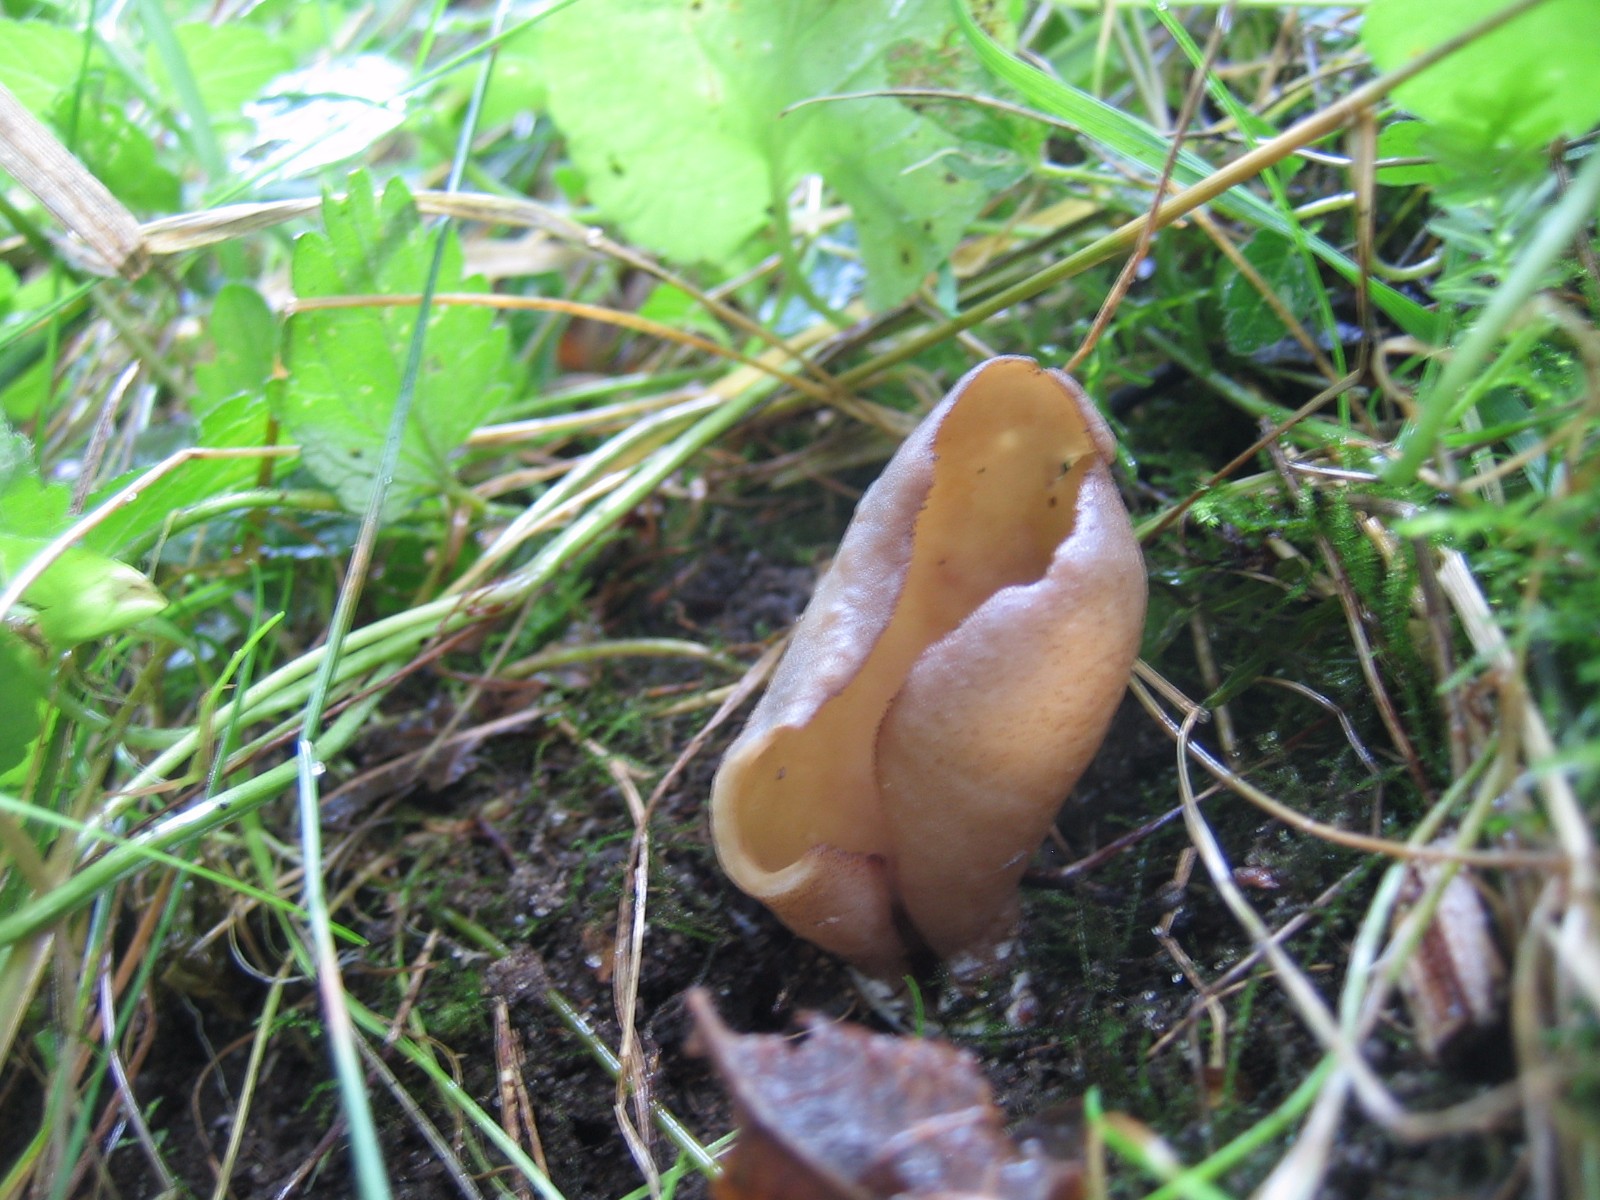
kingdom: Fungi
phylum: Ascomycota
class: Pezizomycetes
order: Pezizales
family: Otideaceae
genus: Otidea
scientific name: Otidea
